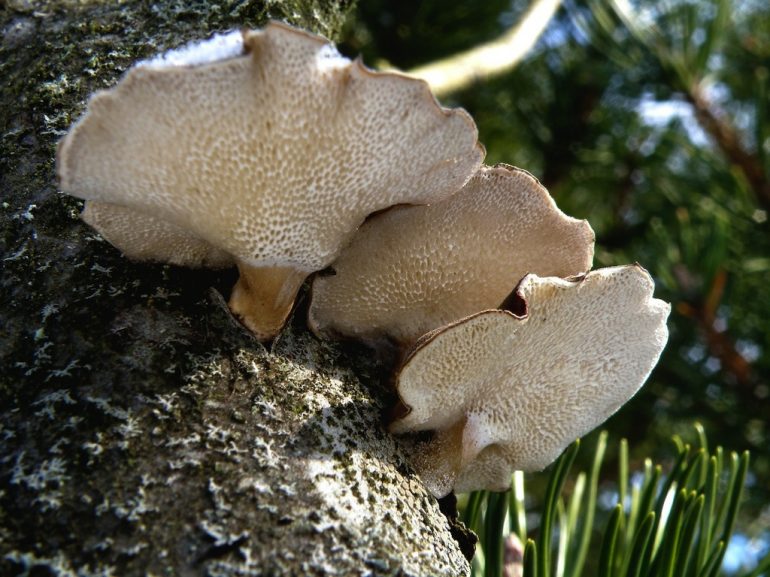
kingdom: Fungi
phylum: Basidiomycota
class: Agaricomycetes
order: Polyporales
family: Polyporaceae
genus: Lentinus
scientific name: Lentinus brumalis
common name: vinter-stilkporesvamp
